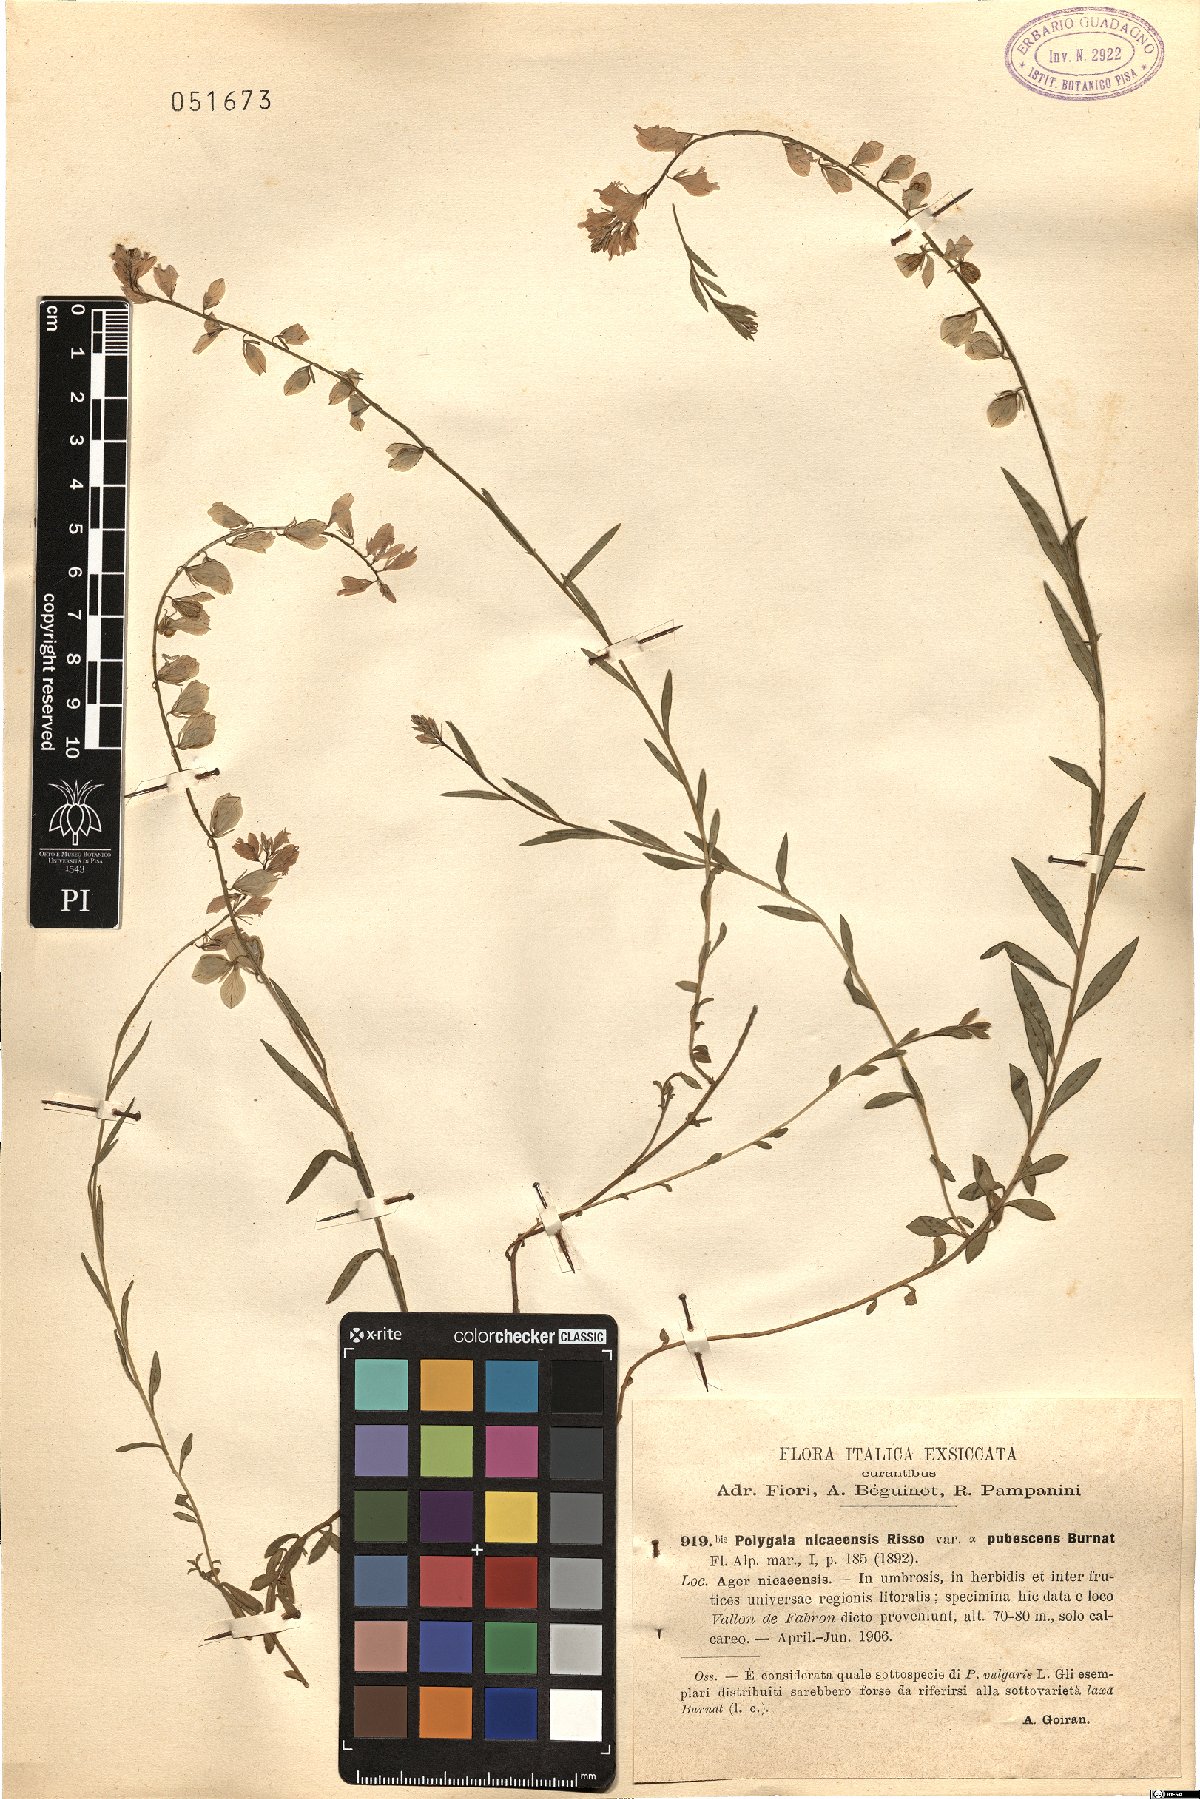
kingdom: Plantae
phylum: Tracheophyta
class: Magnoliopsida
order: Fabales
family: Polygalaceae
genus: Polygala
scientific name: Polygala nicaeensis
